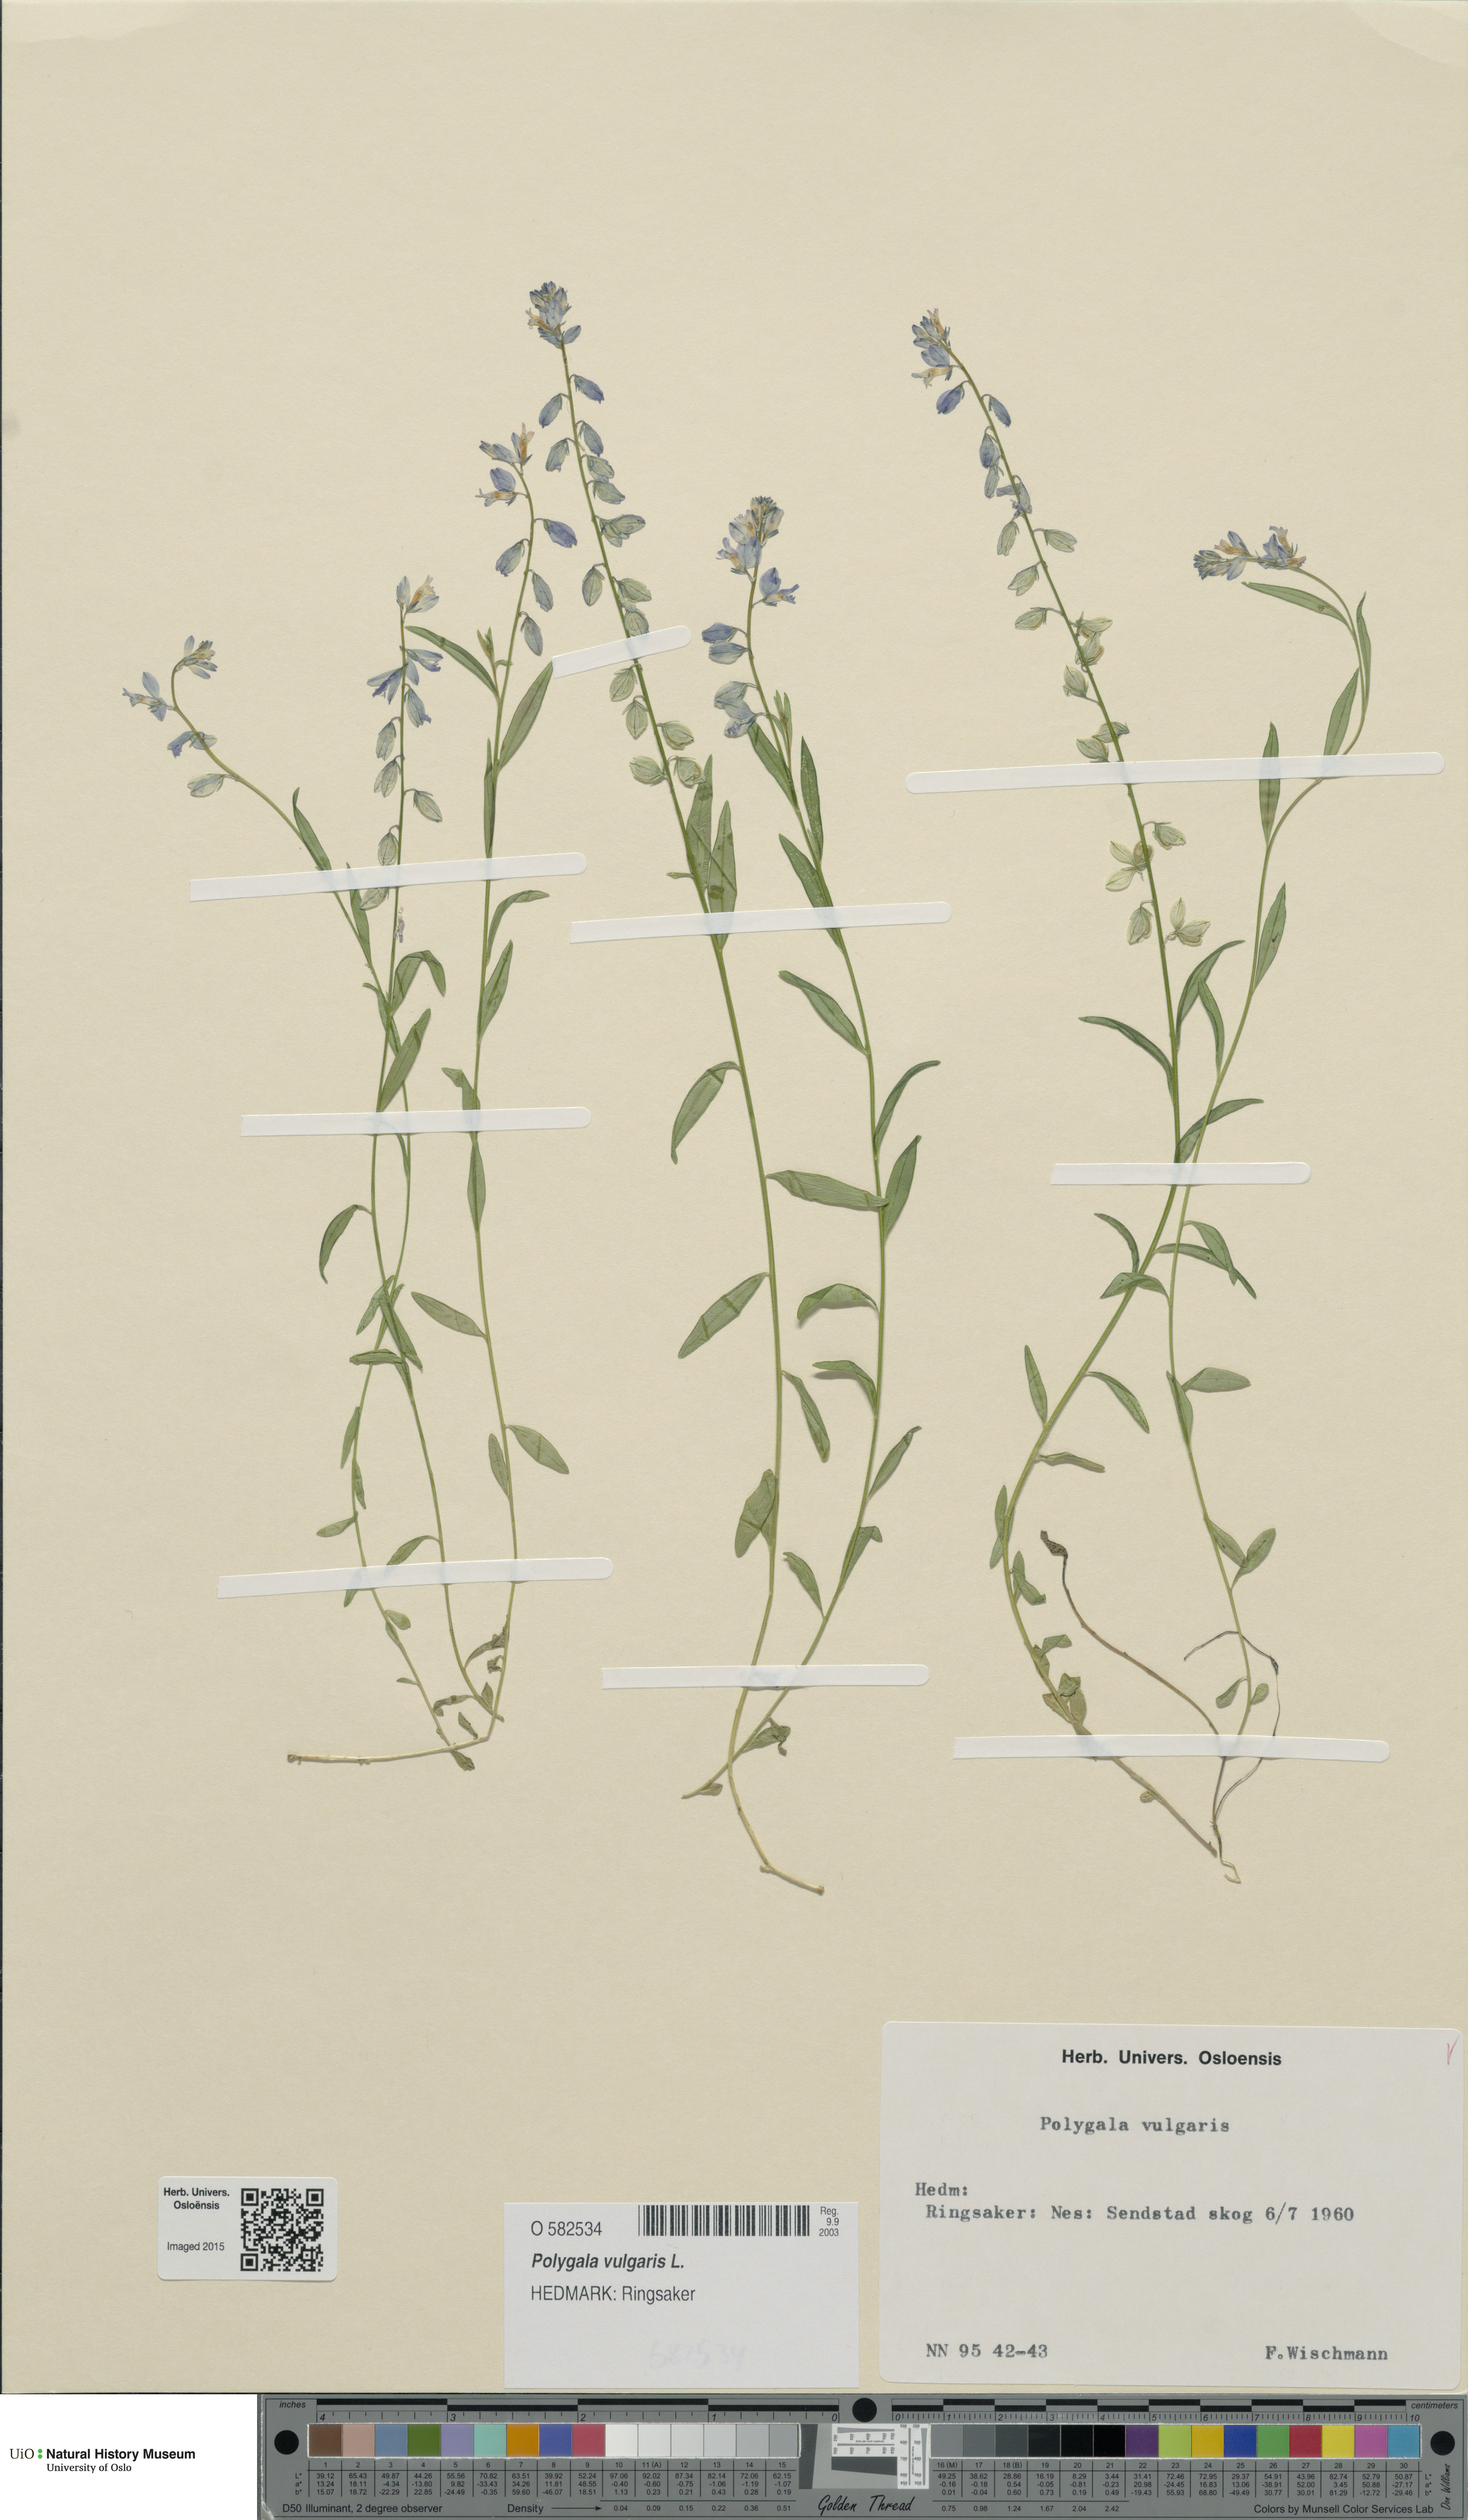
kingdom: Plantae
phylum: Tracheophyta
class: Magnoliopsida
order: Fabales
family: Polygalaceae
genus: Polygala
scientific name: Polygala vulgaris
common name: Common milkwort
